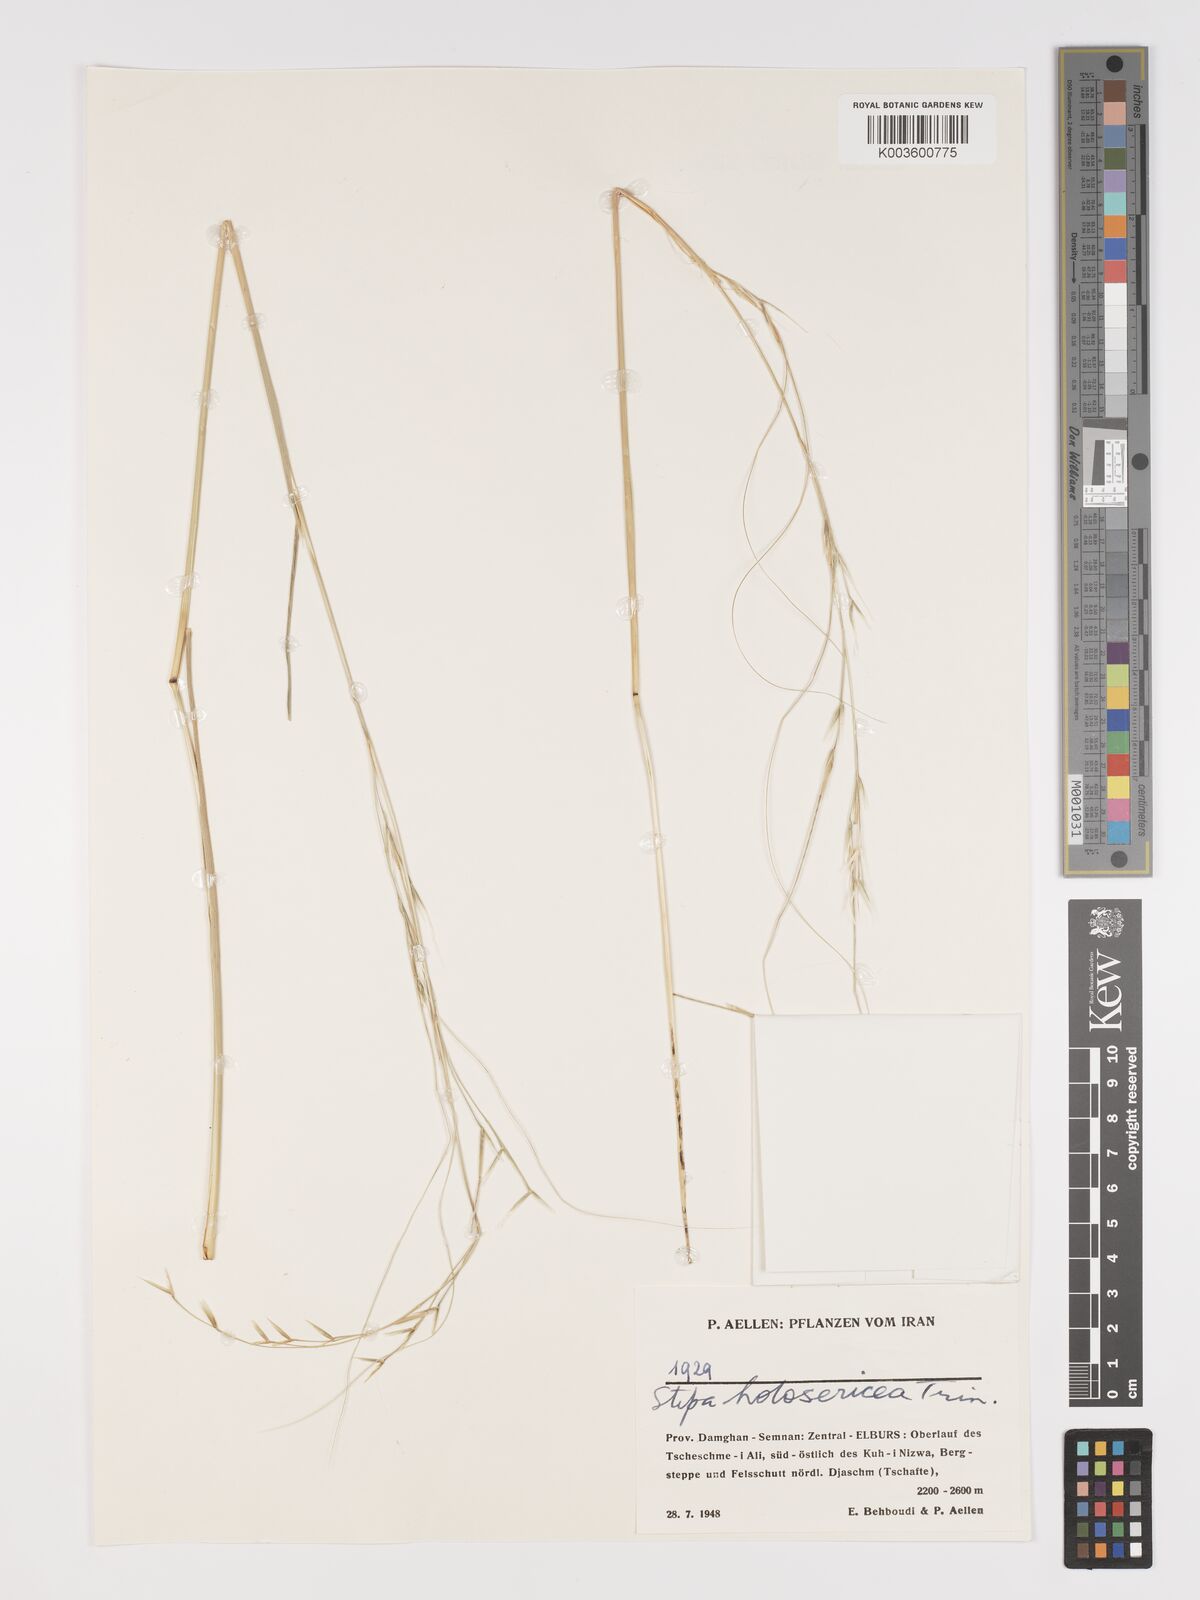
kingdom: Plantae
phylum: Tracheophyta
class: Liliopsida
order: Poales
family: Poaceae
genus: Stipa
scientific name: Stipa lagascae
